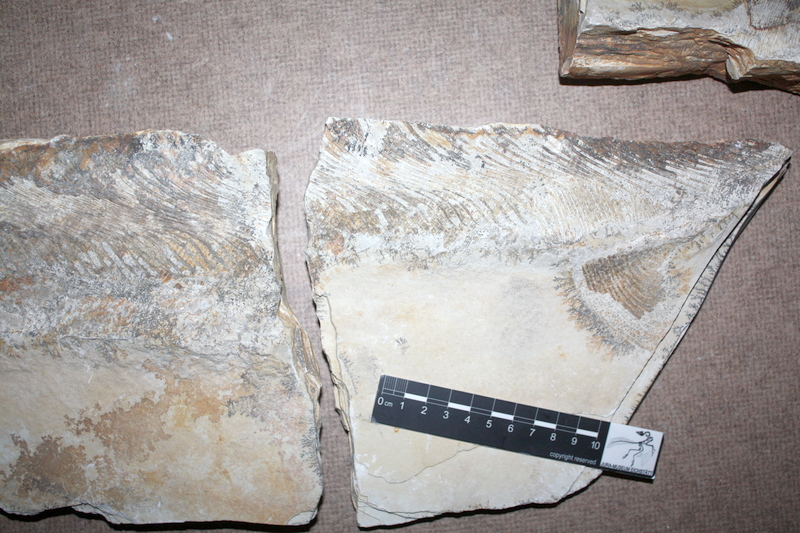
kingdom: Animalia
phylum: Chordata
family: Pachycormidae
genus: Simocormus
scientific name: Simocormus macrolepidotus
